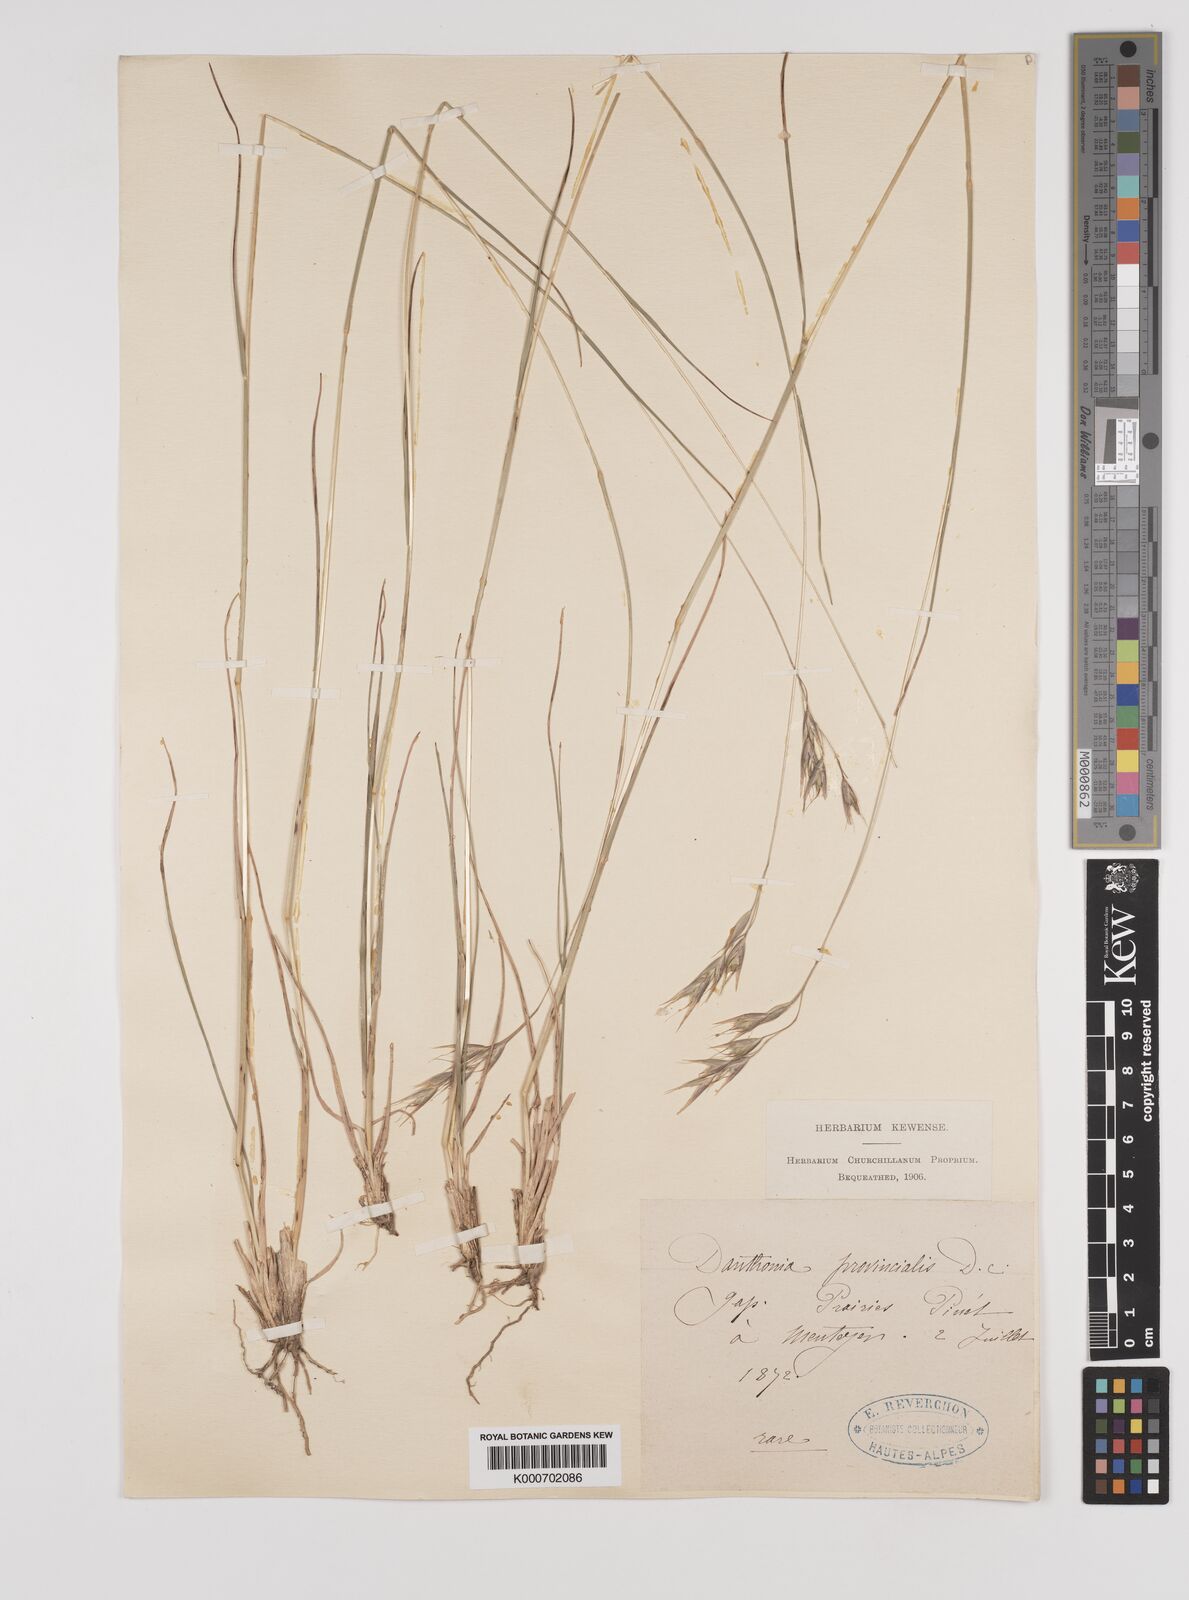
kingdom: Plantae
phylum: Tracheophyta
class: Liliopsida
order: Poales
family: Poaceae
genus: Danthonia
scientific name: Danthonia alpina
